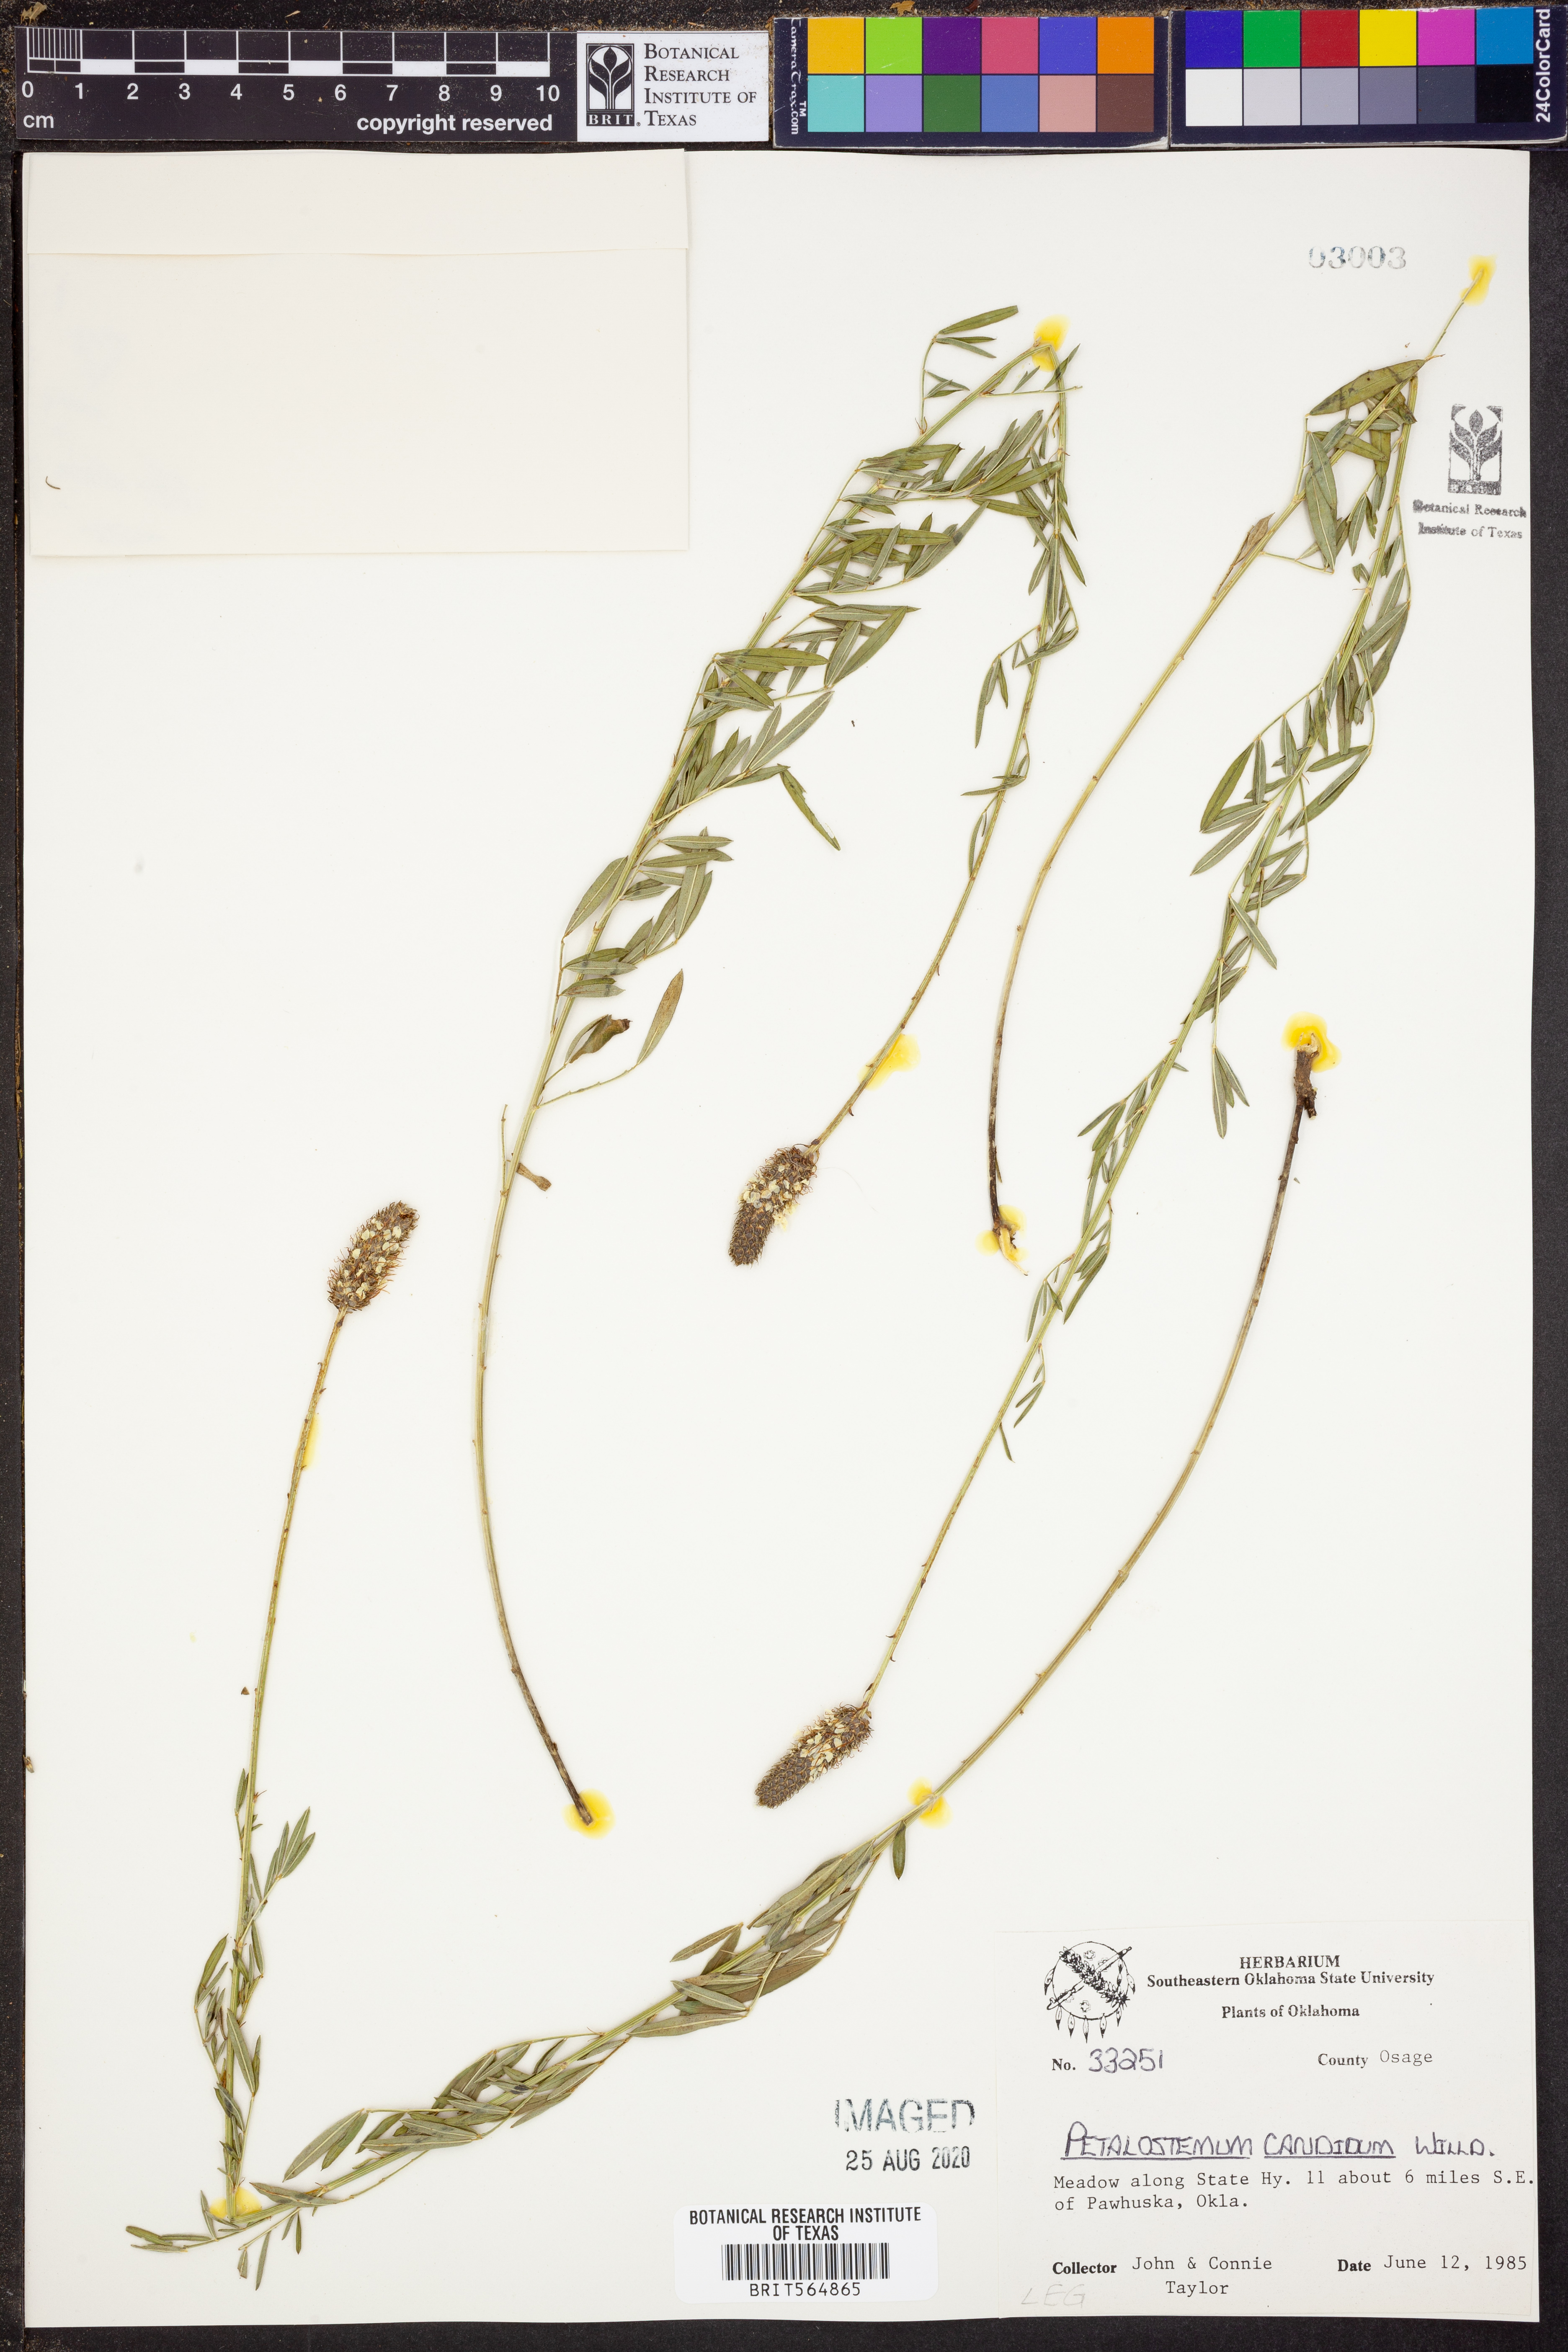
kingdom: Plantae
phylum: Tracheophyta
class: Magnoliopsida
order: Fabales
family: Fabaceae
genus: Dalea
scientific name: Dalea candida
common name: White prairie-clover
